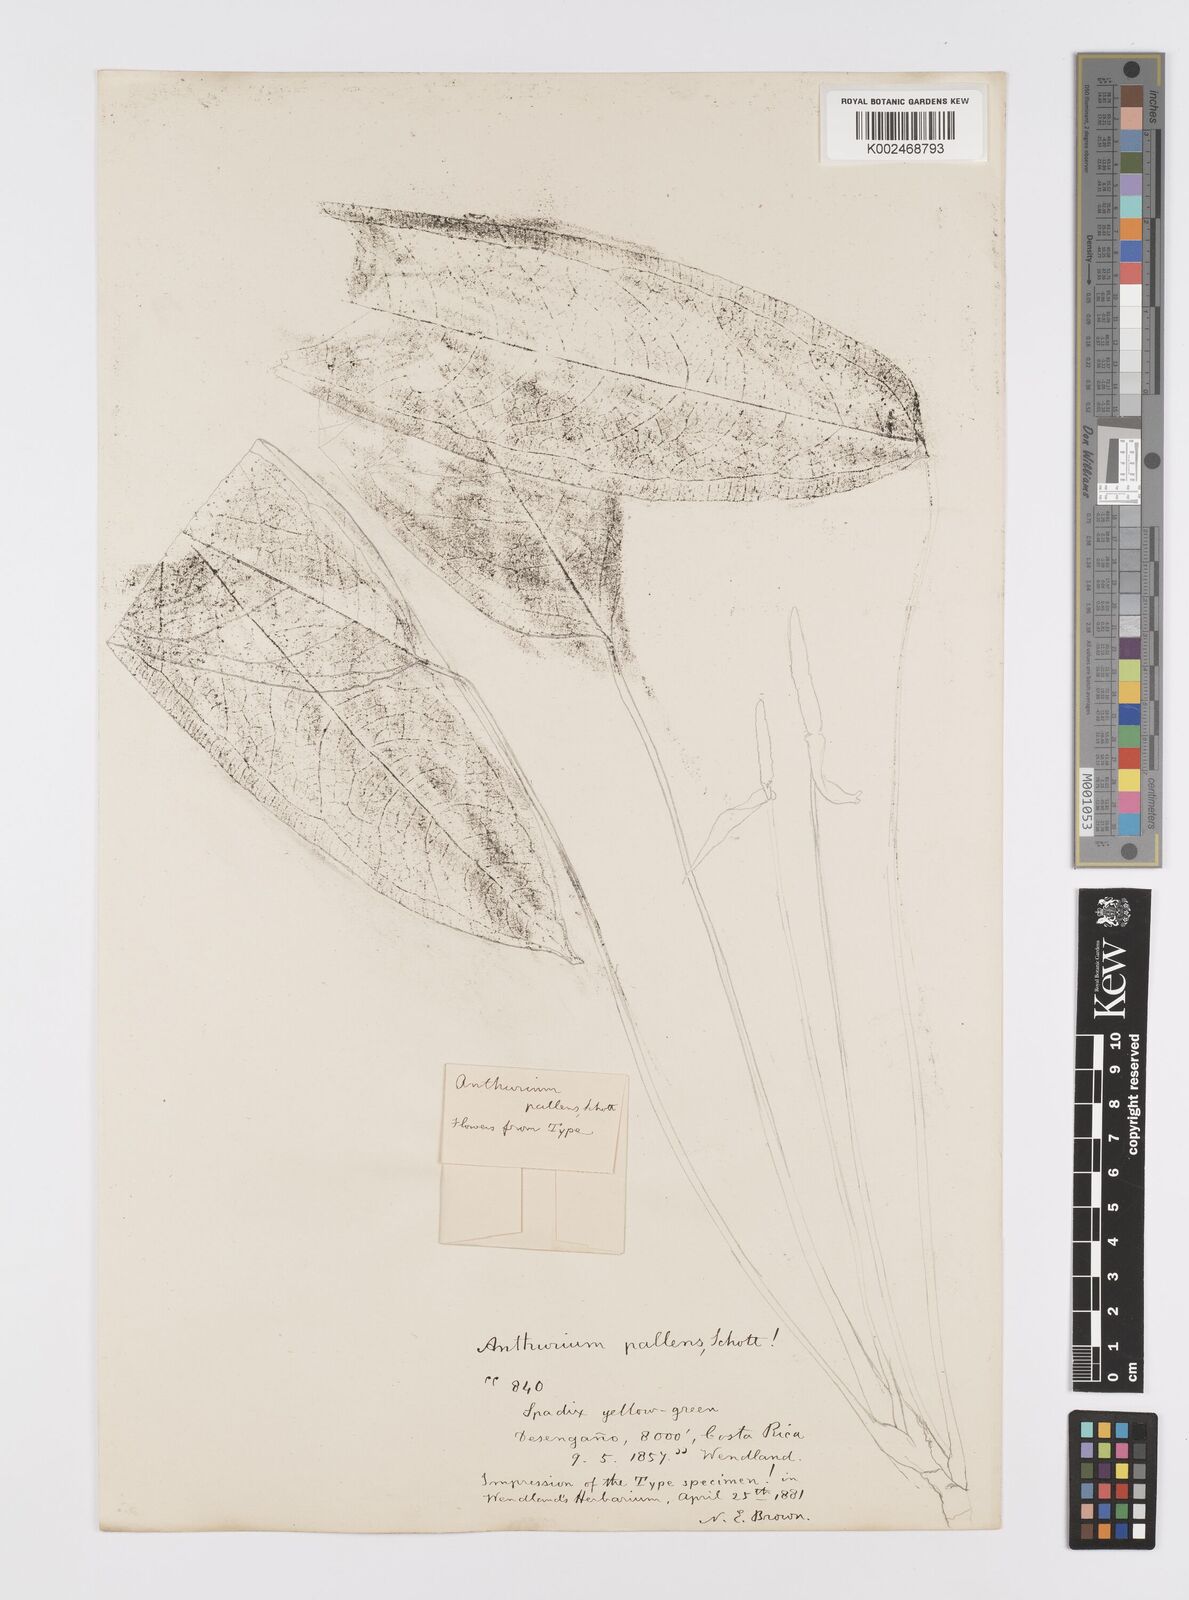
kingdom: Plantae
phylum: Tracheophyta
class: Liliopsida
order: Alismatales
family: Araceae
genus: Anthurium
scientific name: Anthurium pallens
